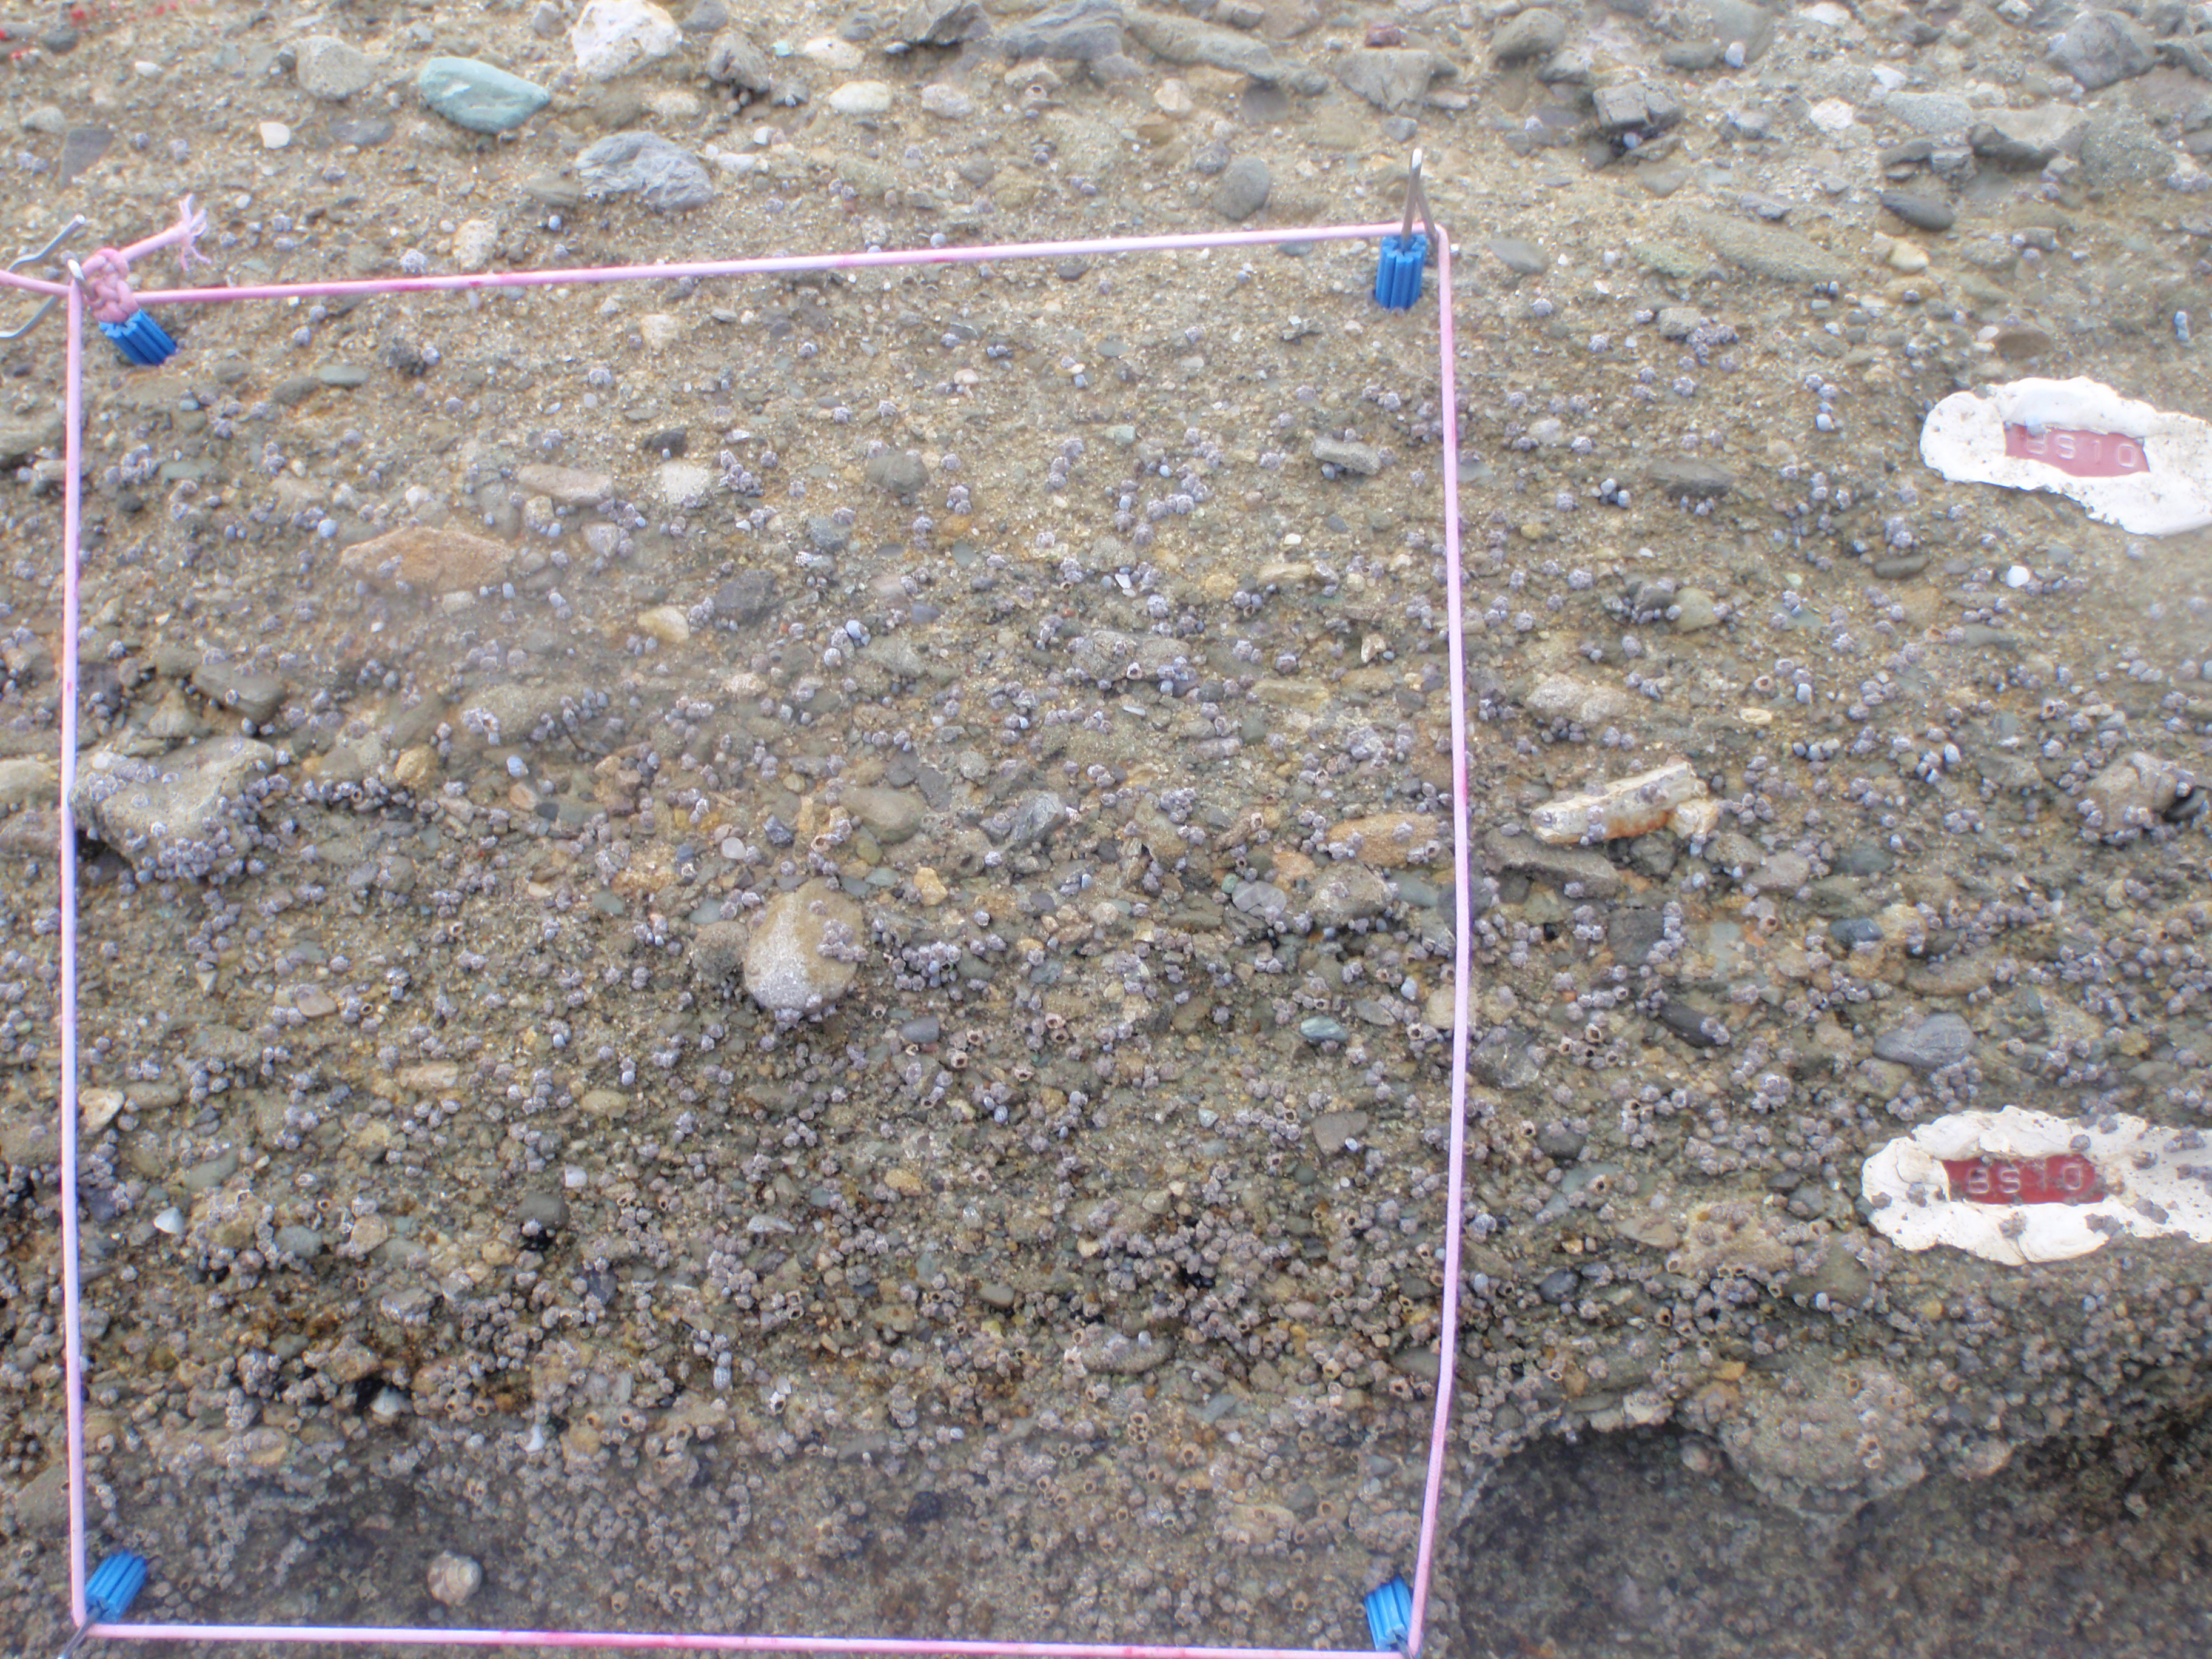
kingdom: Animalia
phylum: Arthropoda
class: Maxillopoda
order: Sessilia
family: Chthamalidae
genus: Chthamalus
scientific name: Chthamalus challengeri
